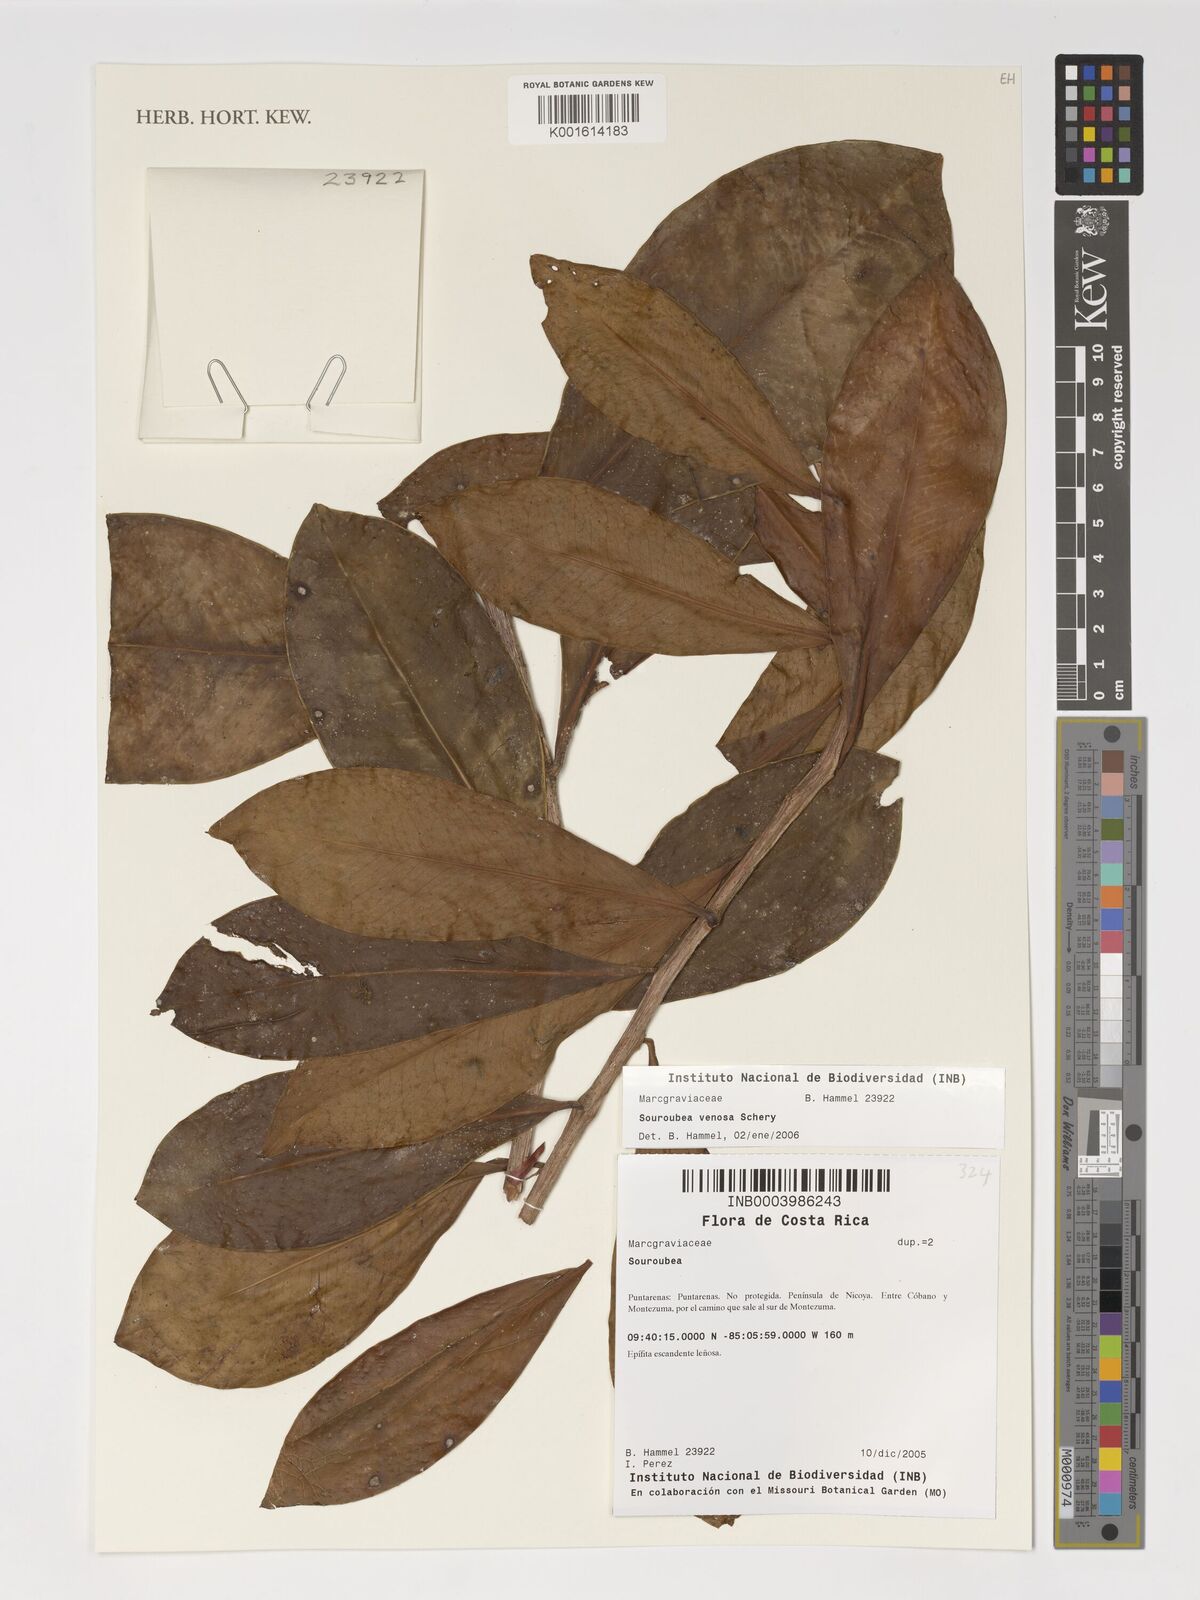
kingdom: Plantae
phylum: Tracheophyta
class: Magnoliopsida
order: Ericales
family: Marcgraviaceae
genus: Souroubea
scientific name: Souroubea venosa
